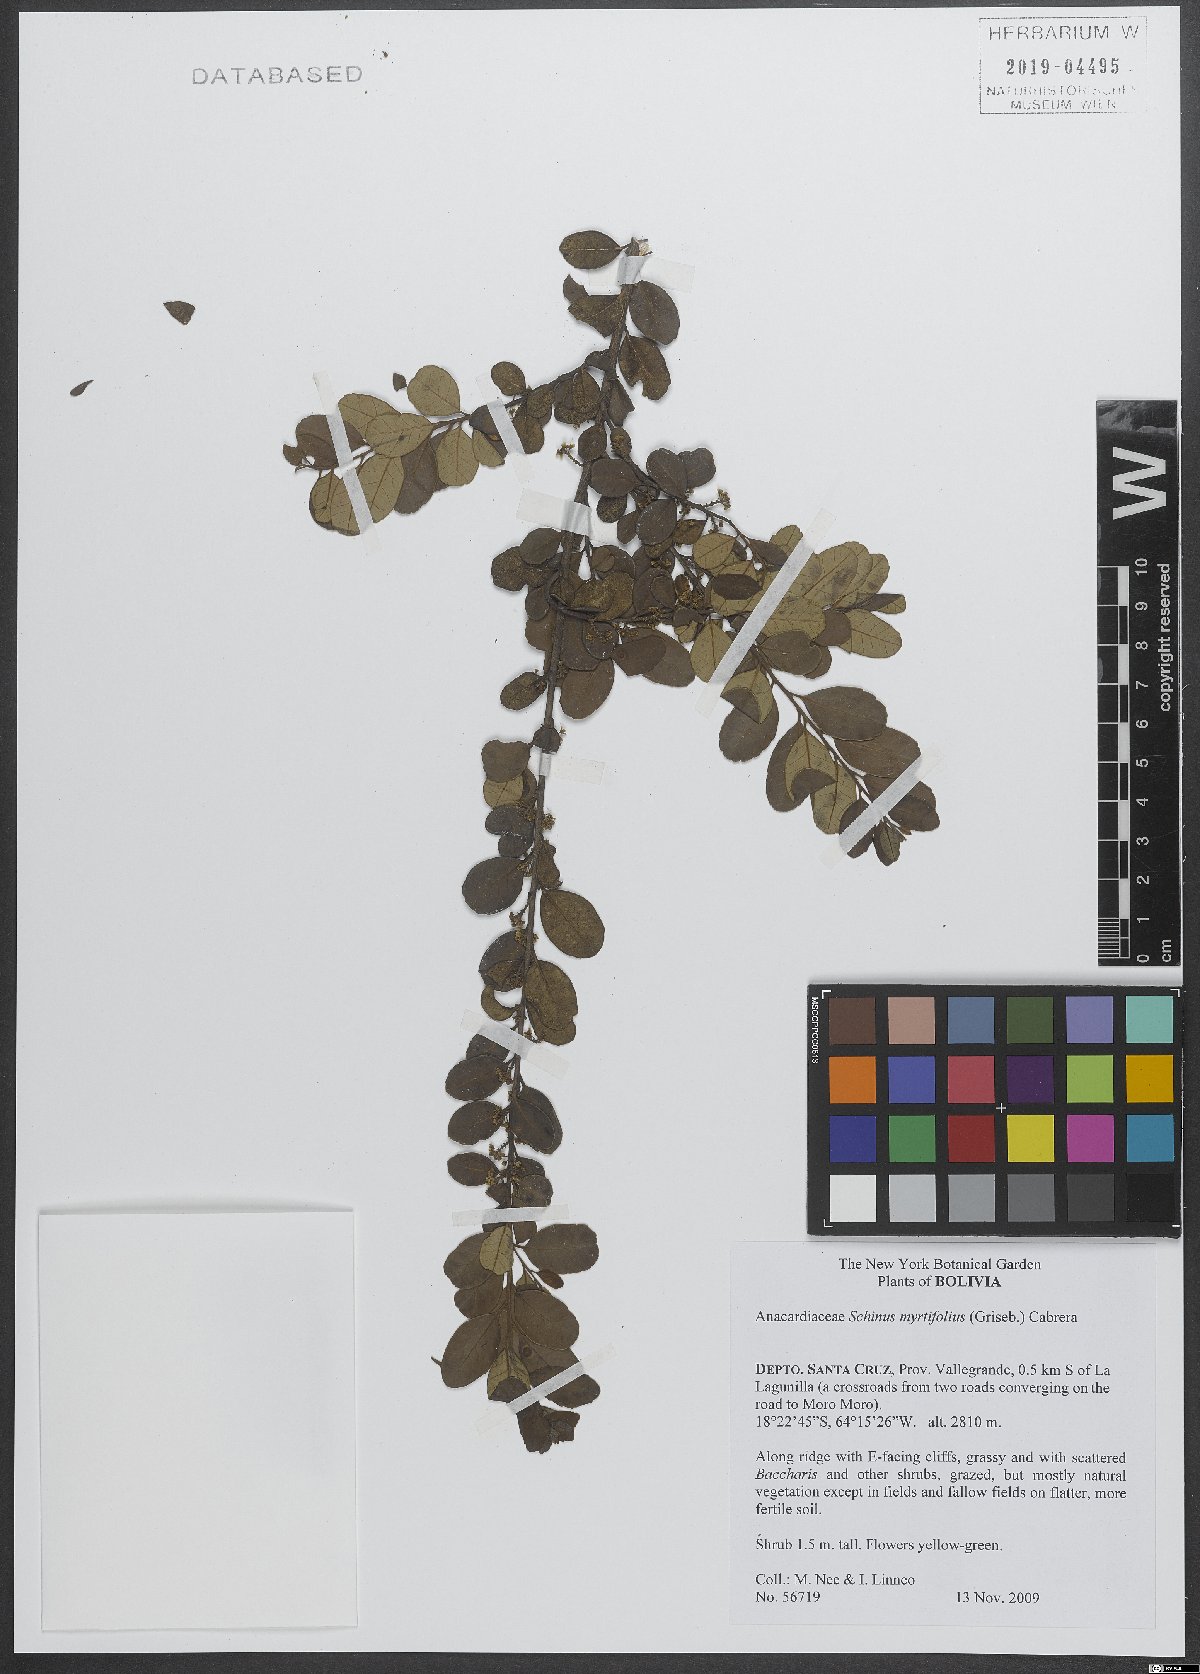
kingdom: Plantae
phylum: Tracheophyta
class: Magnoliopsida
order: Sapindales
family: Anacardiaceae
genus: Schinus
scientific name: Schinus myrtifolia
